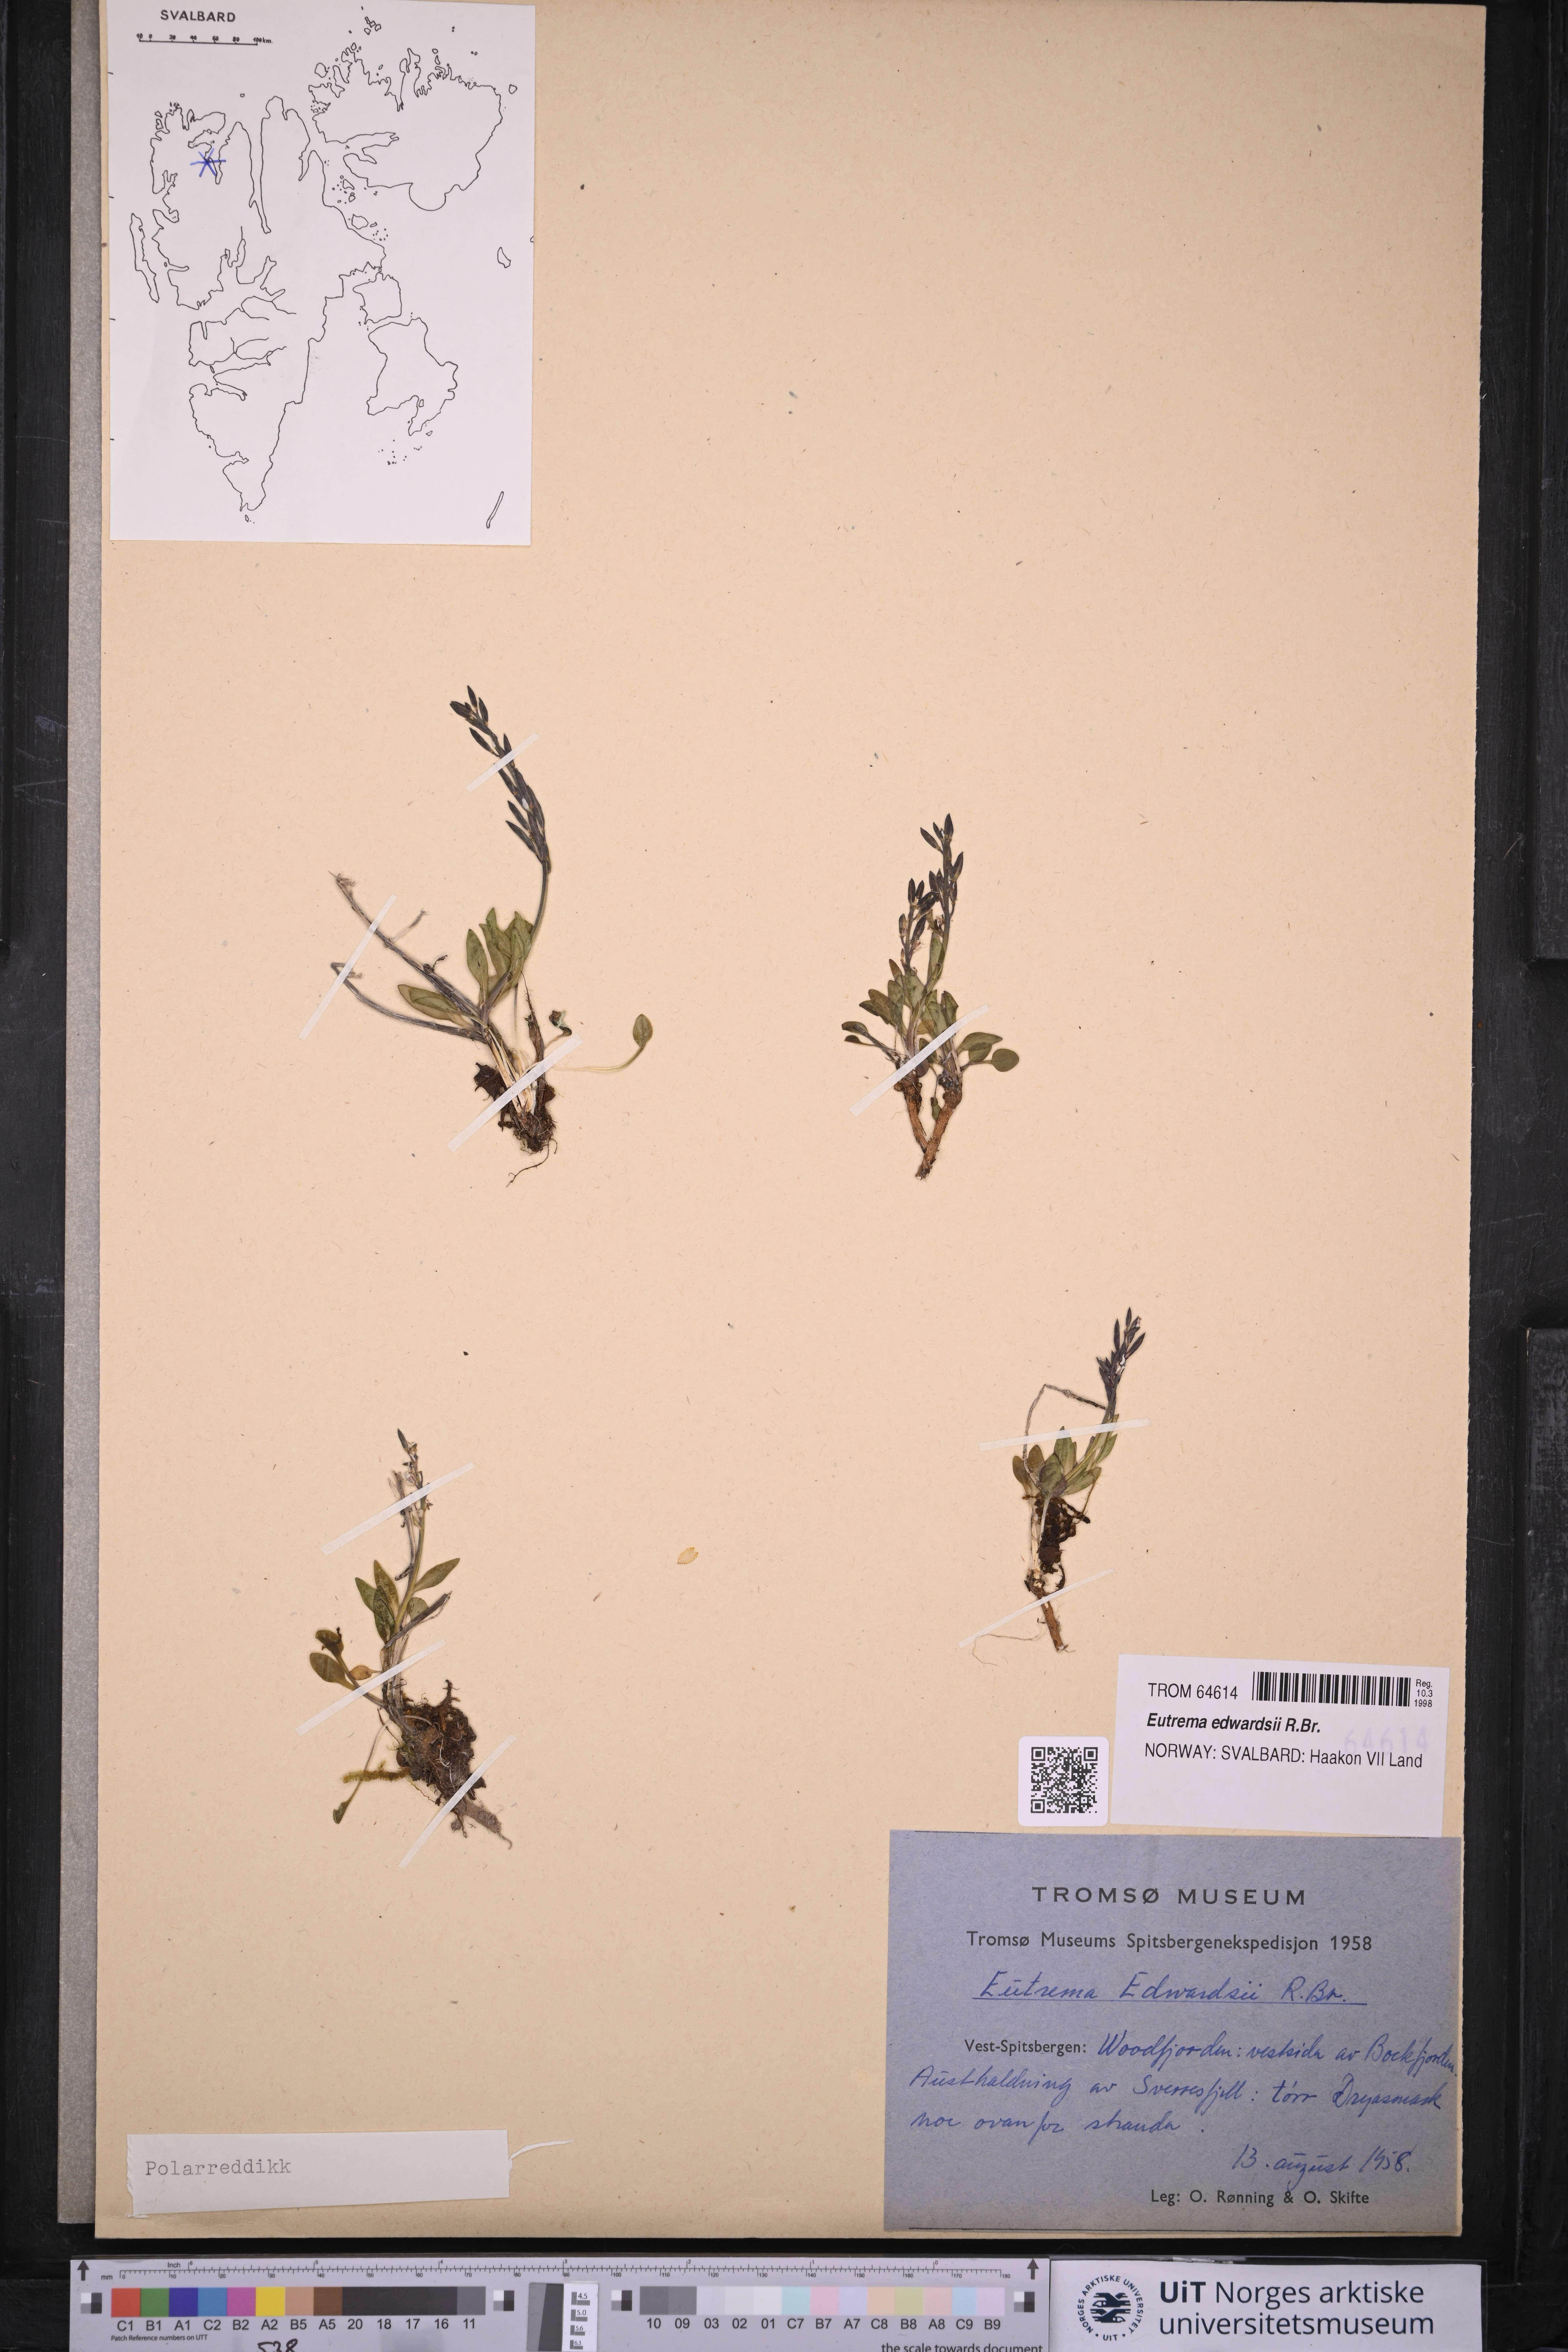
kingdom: Plantae
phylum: Tracheophyta
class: Magnoliopsida
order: Brassicales
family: Brassicaceae
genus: Eutrema
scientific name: Eutrema edwardsii
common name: Penland alpine fen mustard
